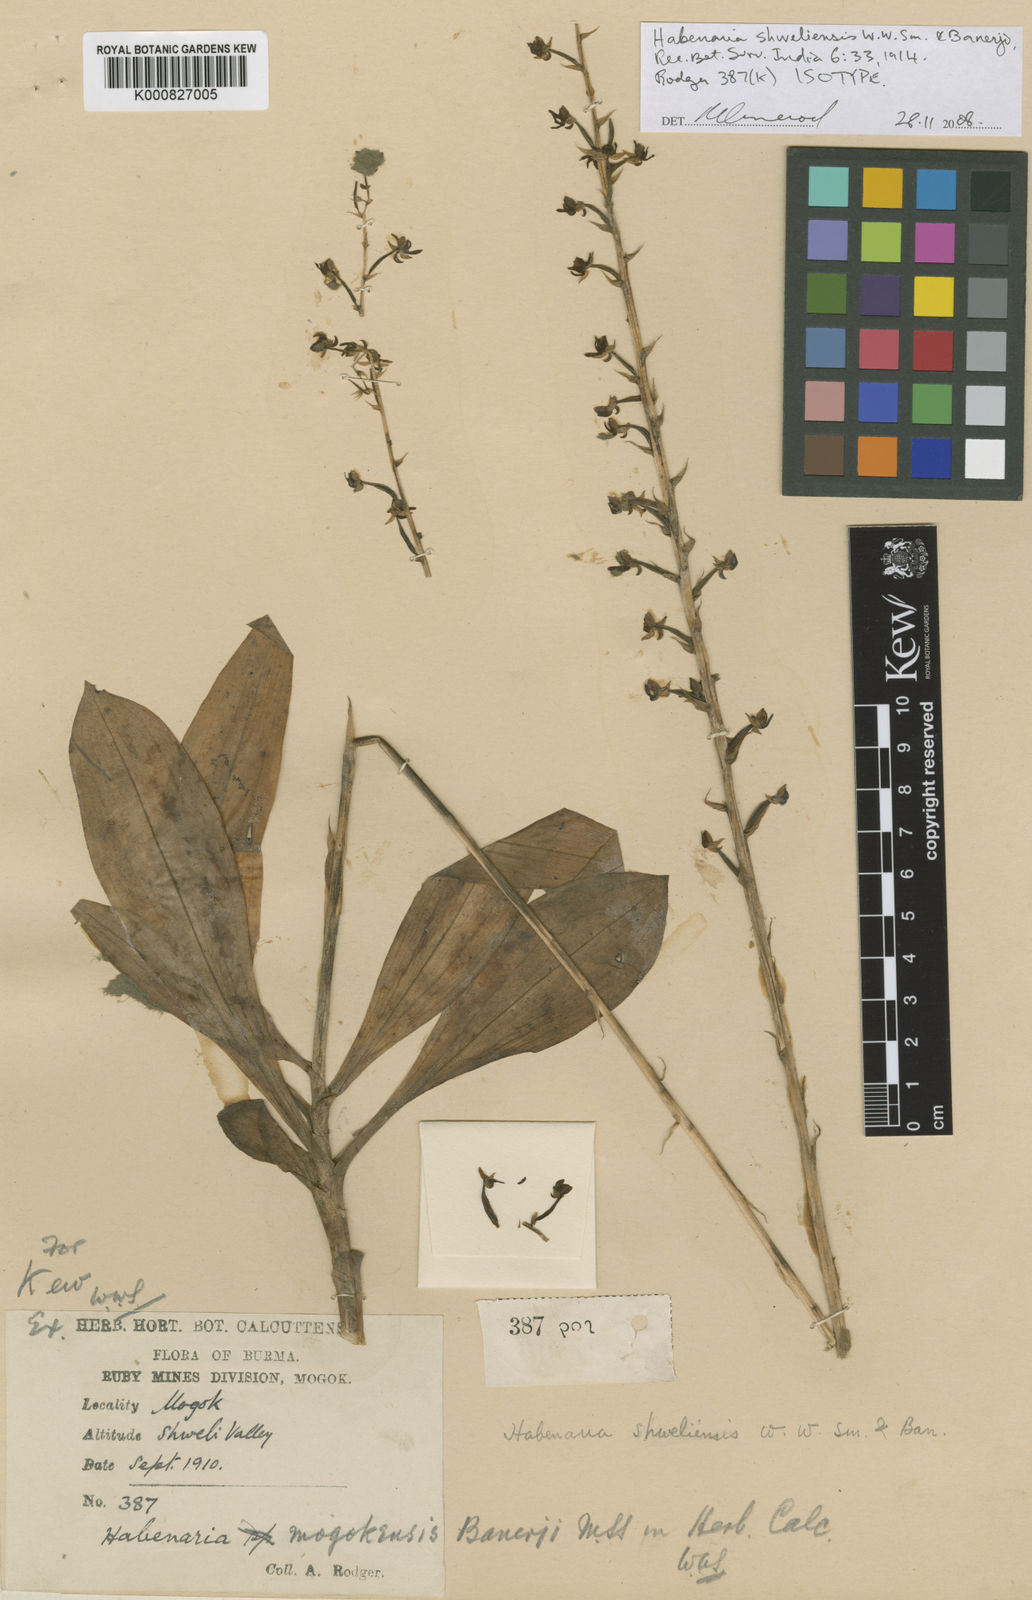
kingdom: Plantae
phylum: Tracheophyta
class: Liliopsida
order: Asparagales
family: Orchidaceae
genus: Habenaria
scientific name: Habenaria shweliensis
